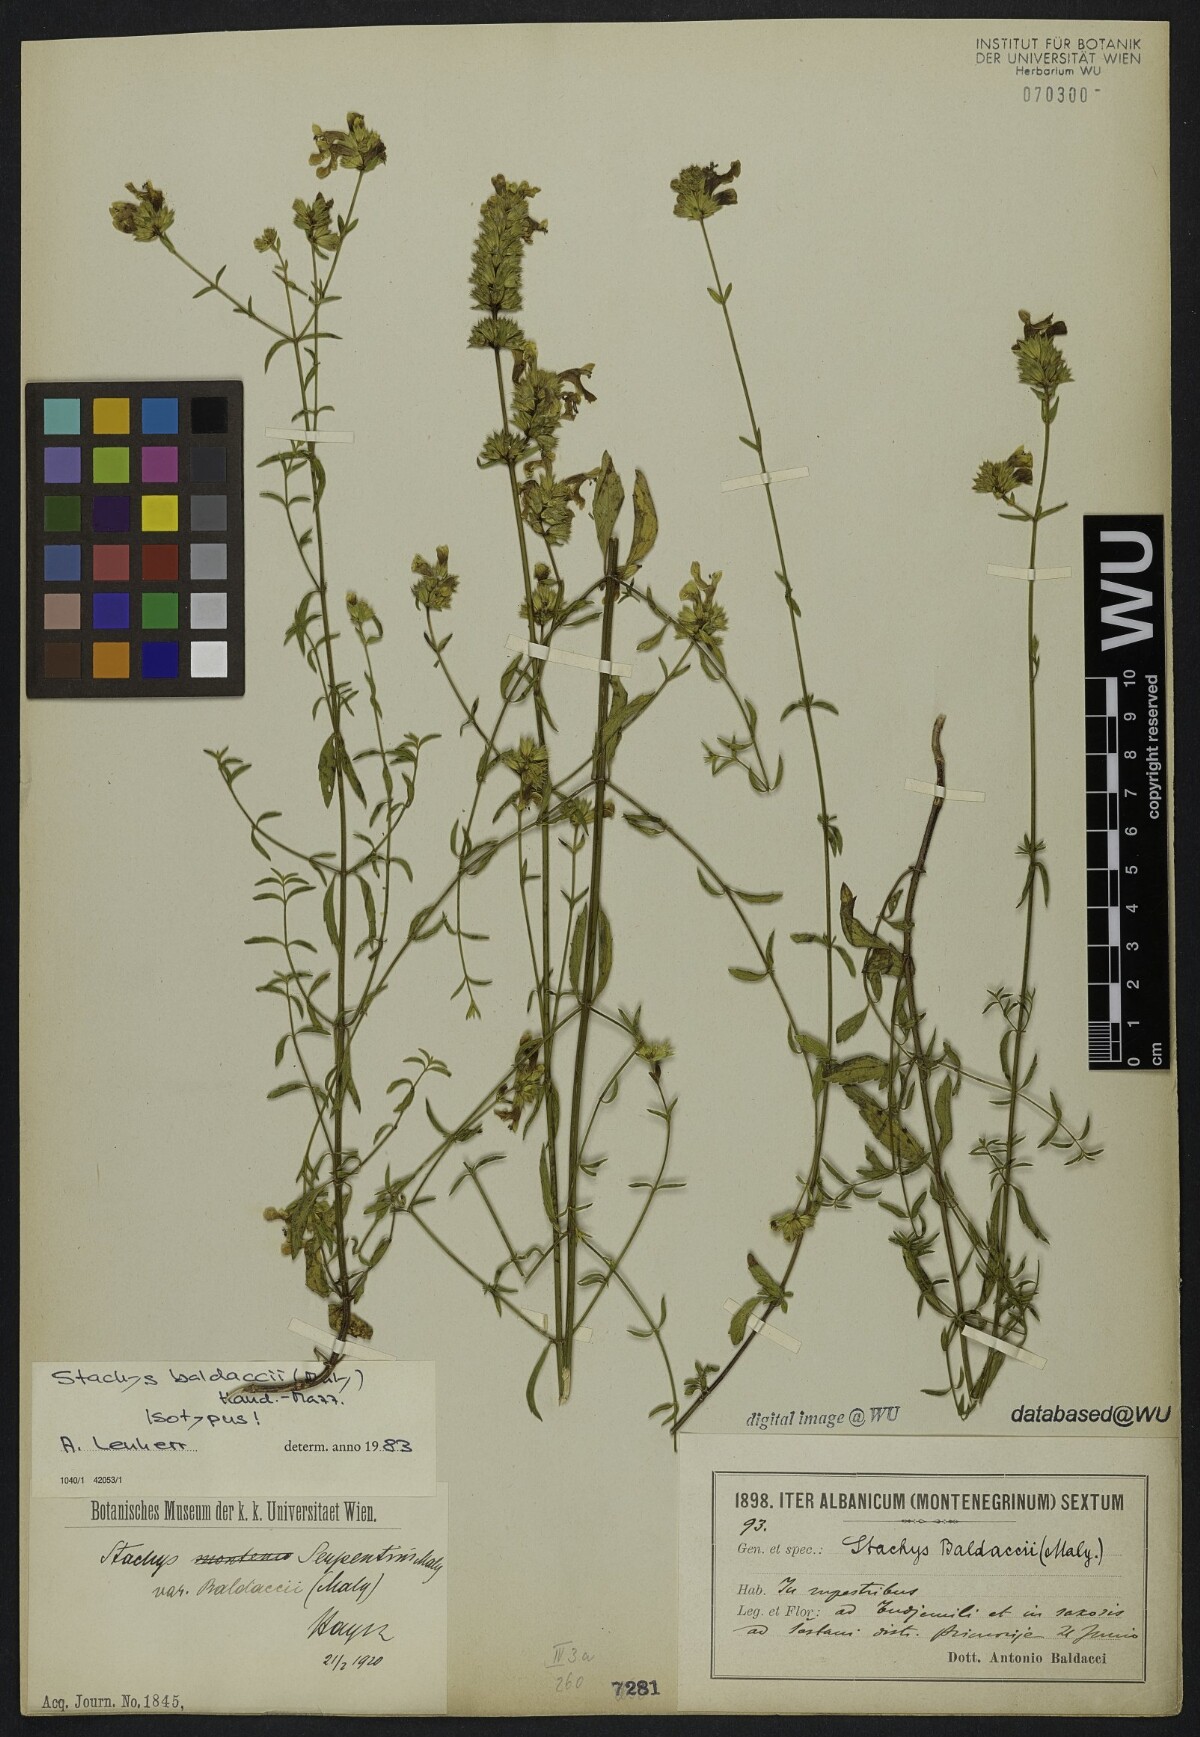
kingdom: Plantae
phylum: Tracheophyta
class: Magnoliopsida
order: Lamiales
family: Lamiaceae
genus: Stachys
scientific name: Stachys recta
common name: Perennial yellow-woundwort
